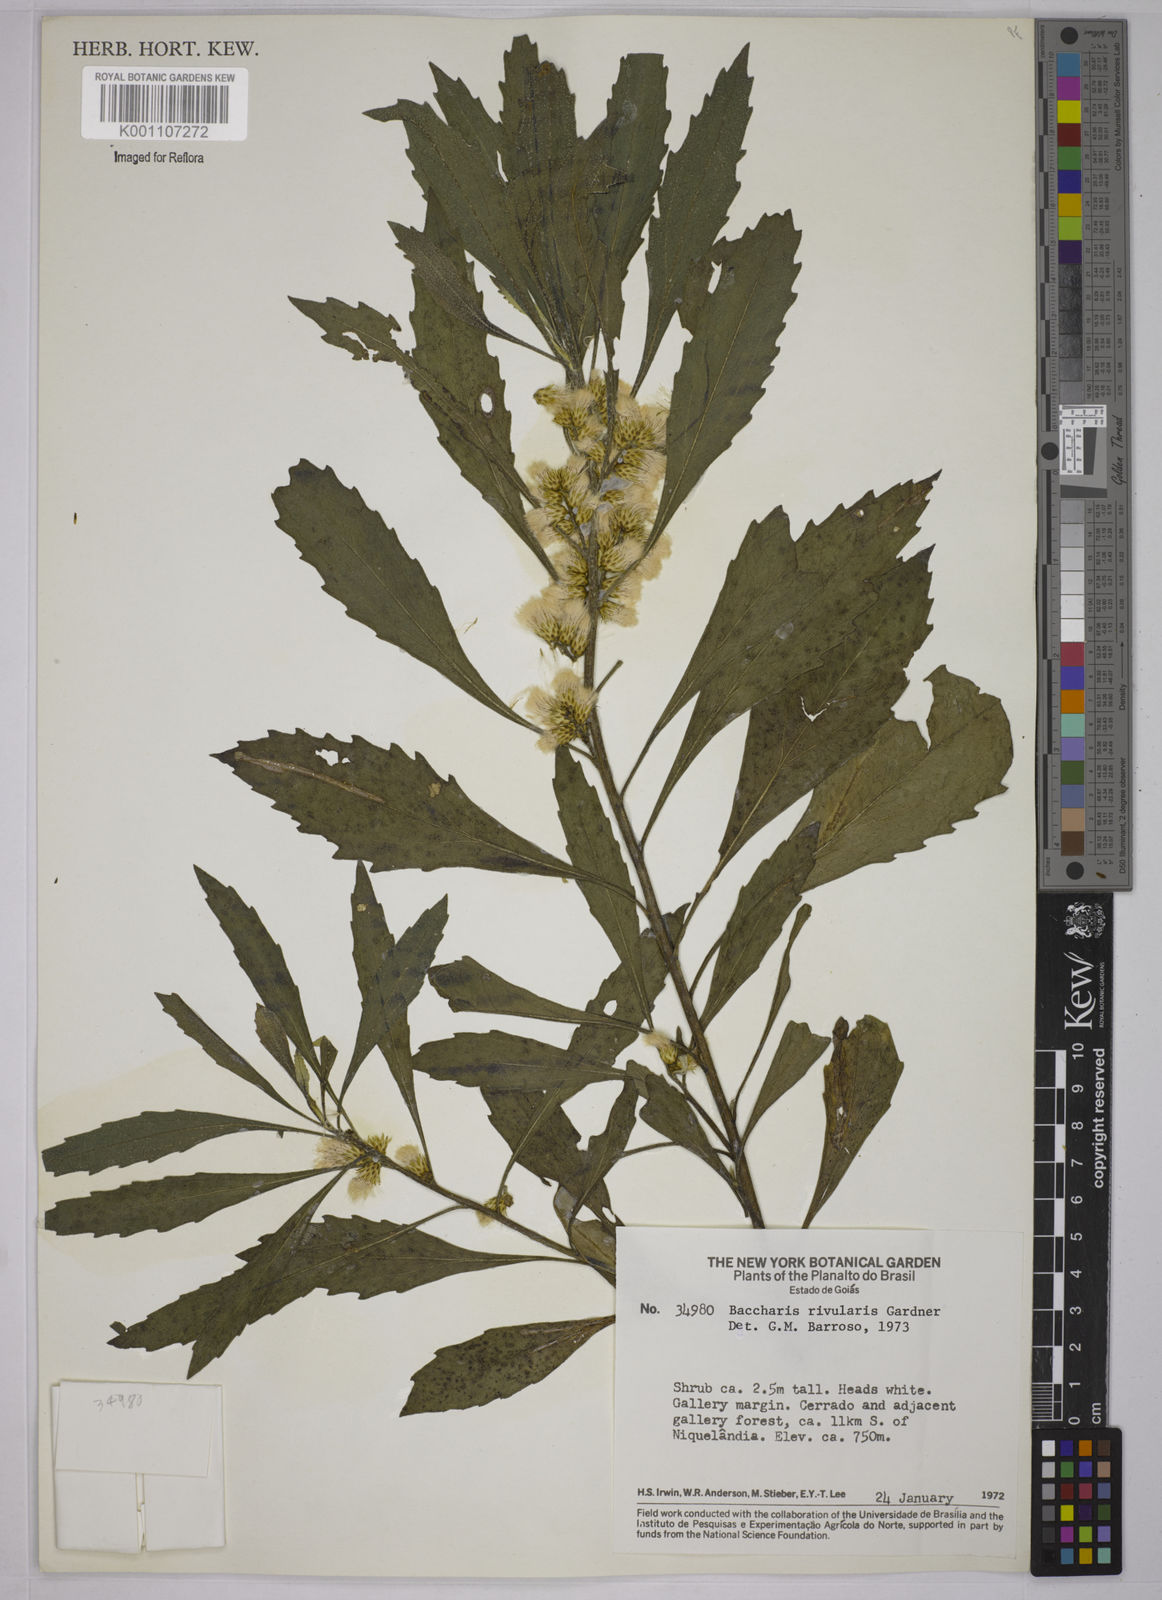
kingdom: Plantae
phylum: Tracheophyta
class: Magnoliopsida
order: Asterales
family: Asteraceae
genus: Baccharis
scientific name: Baccharis rivularis
